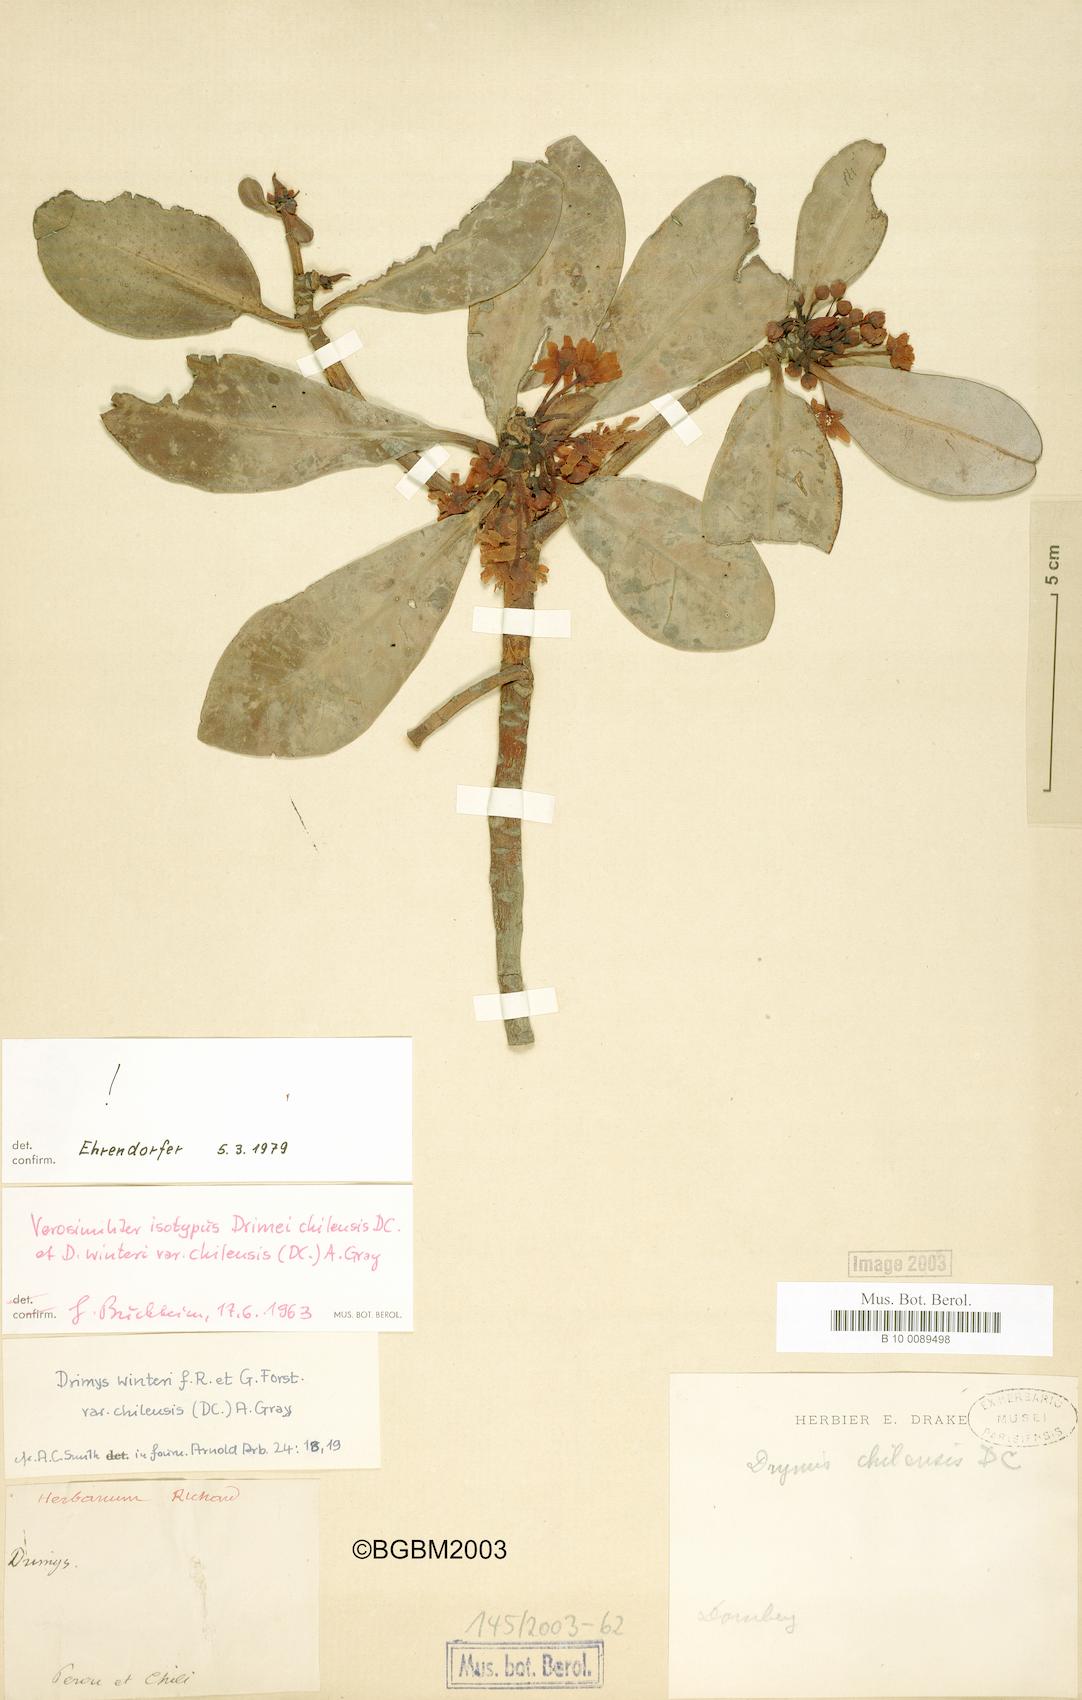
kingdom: Plantae
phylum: Tracheophyta
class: Magnoliopsida
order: Canellales
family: Winteraceae
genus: Drimys
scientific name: Drimys winteri
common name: Winter's-bark
